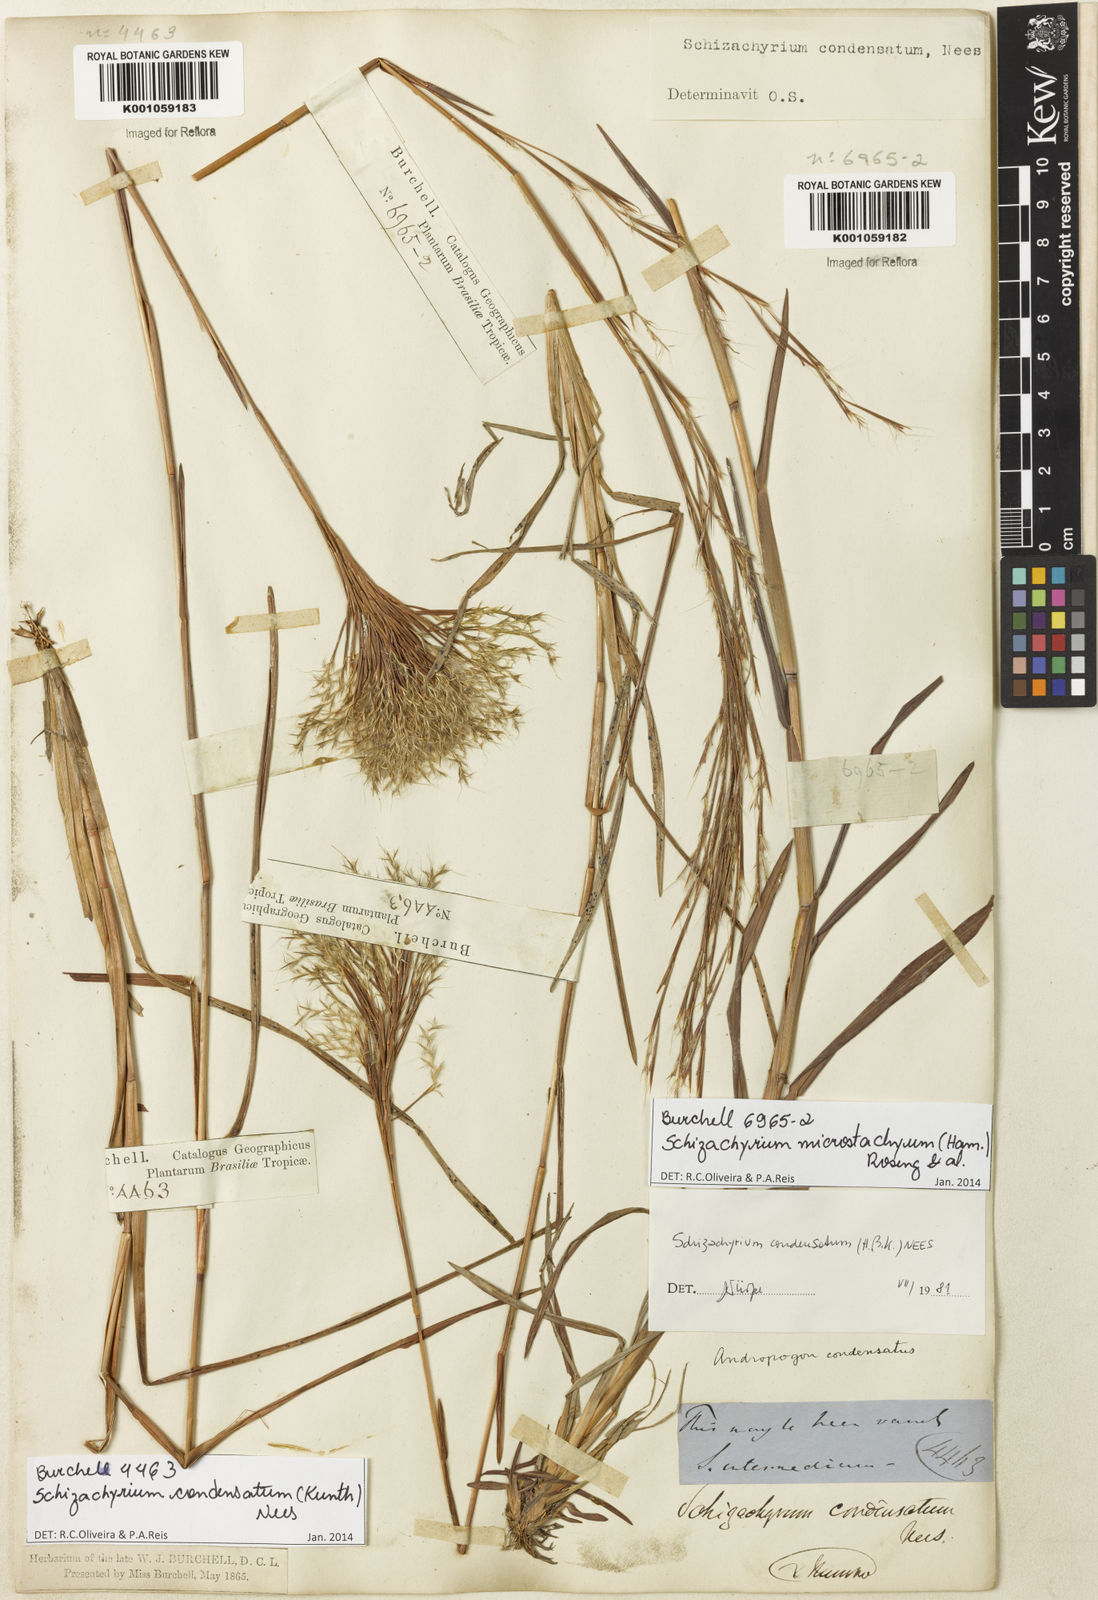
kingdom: Plantae
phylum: Tracheophyta
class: Liliopsida
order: Poales
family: Poaceae
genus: Schizachyrium
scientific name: Schizachyrium condensatum
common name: Bush beardgrass
